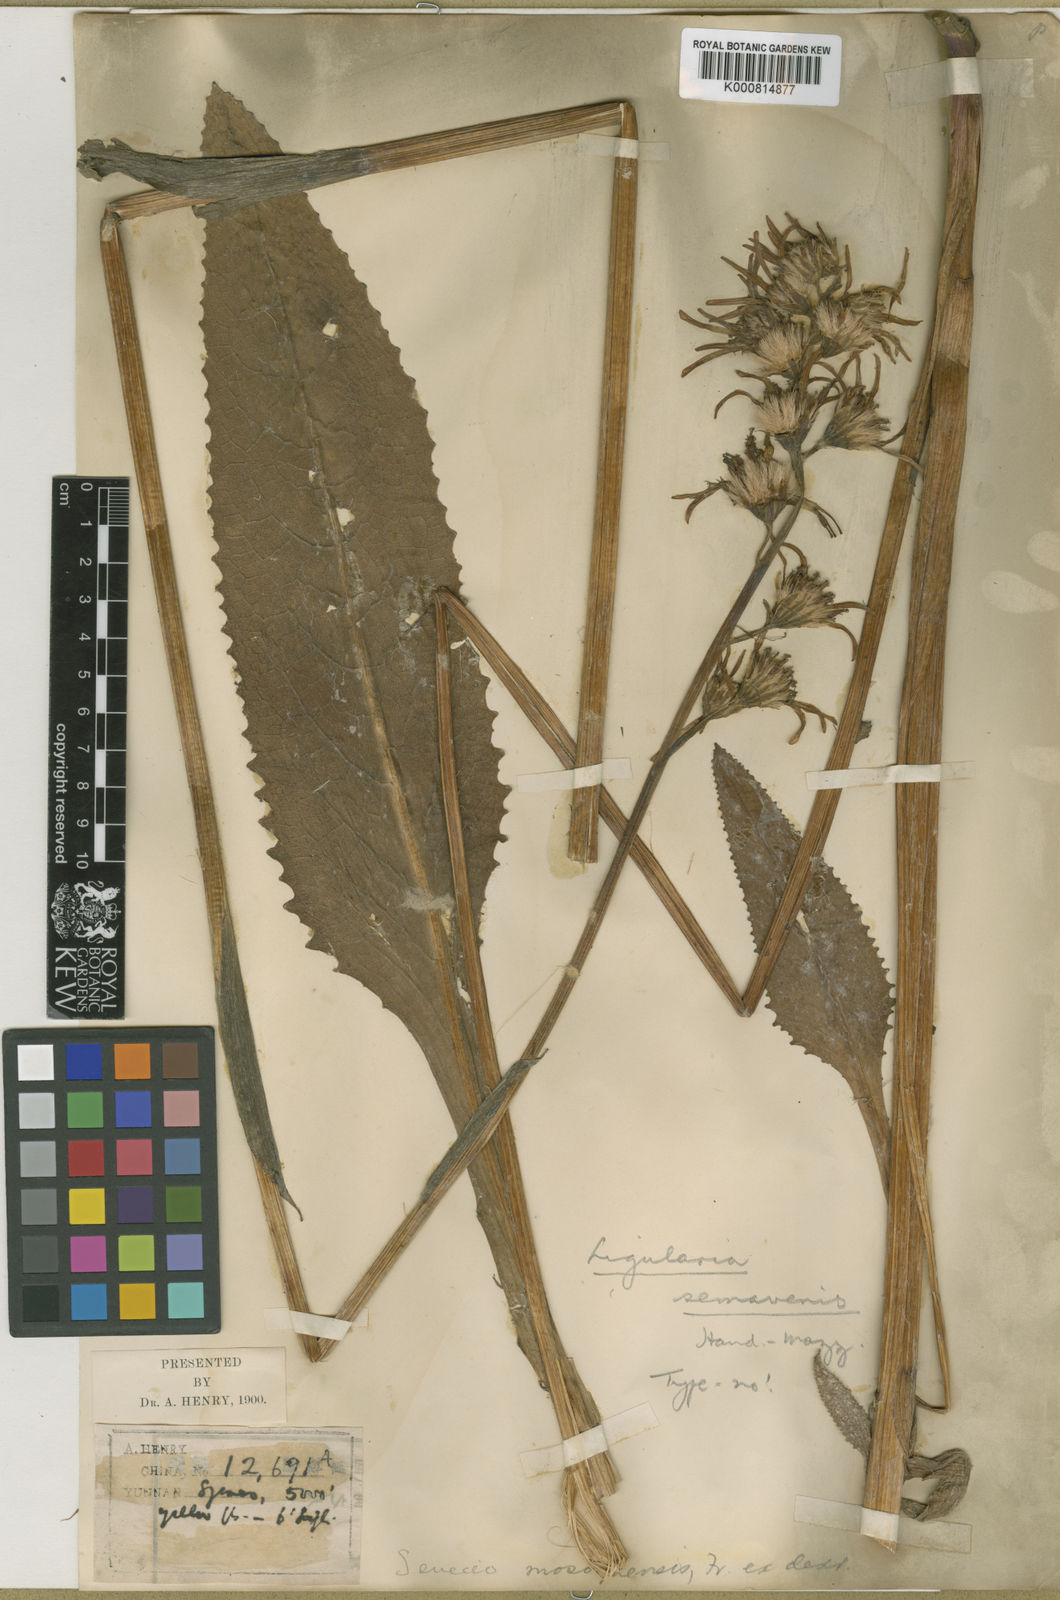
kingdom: Plantae
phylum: Tracheophyta
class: Magnoliopsida
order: Asterales
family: Asteraceae
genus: Ligularia
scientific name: Ligularia longifolia
